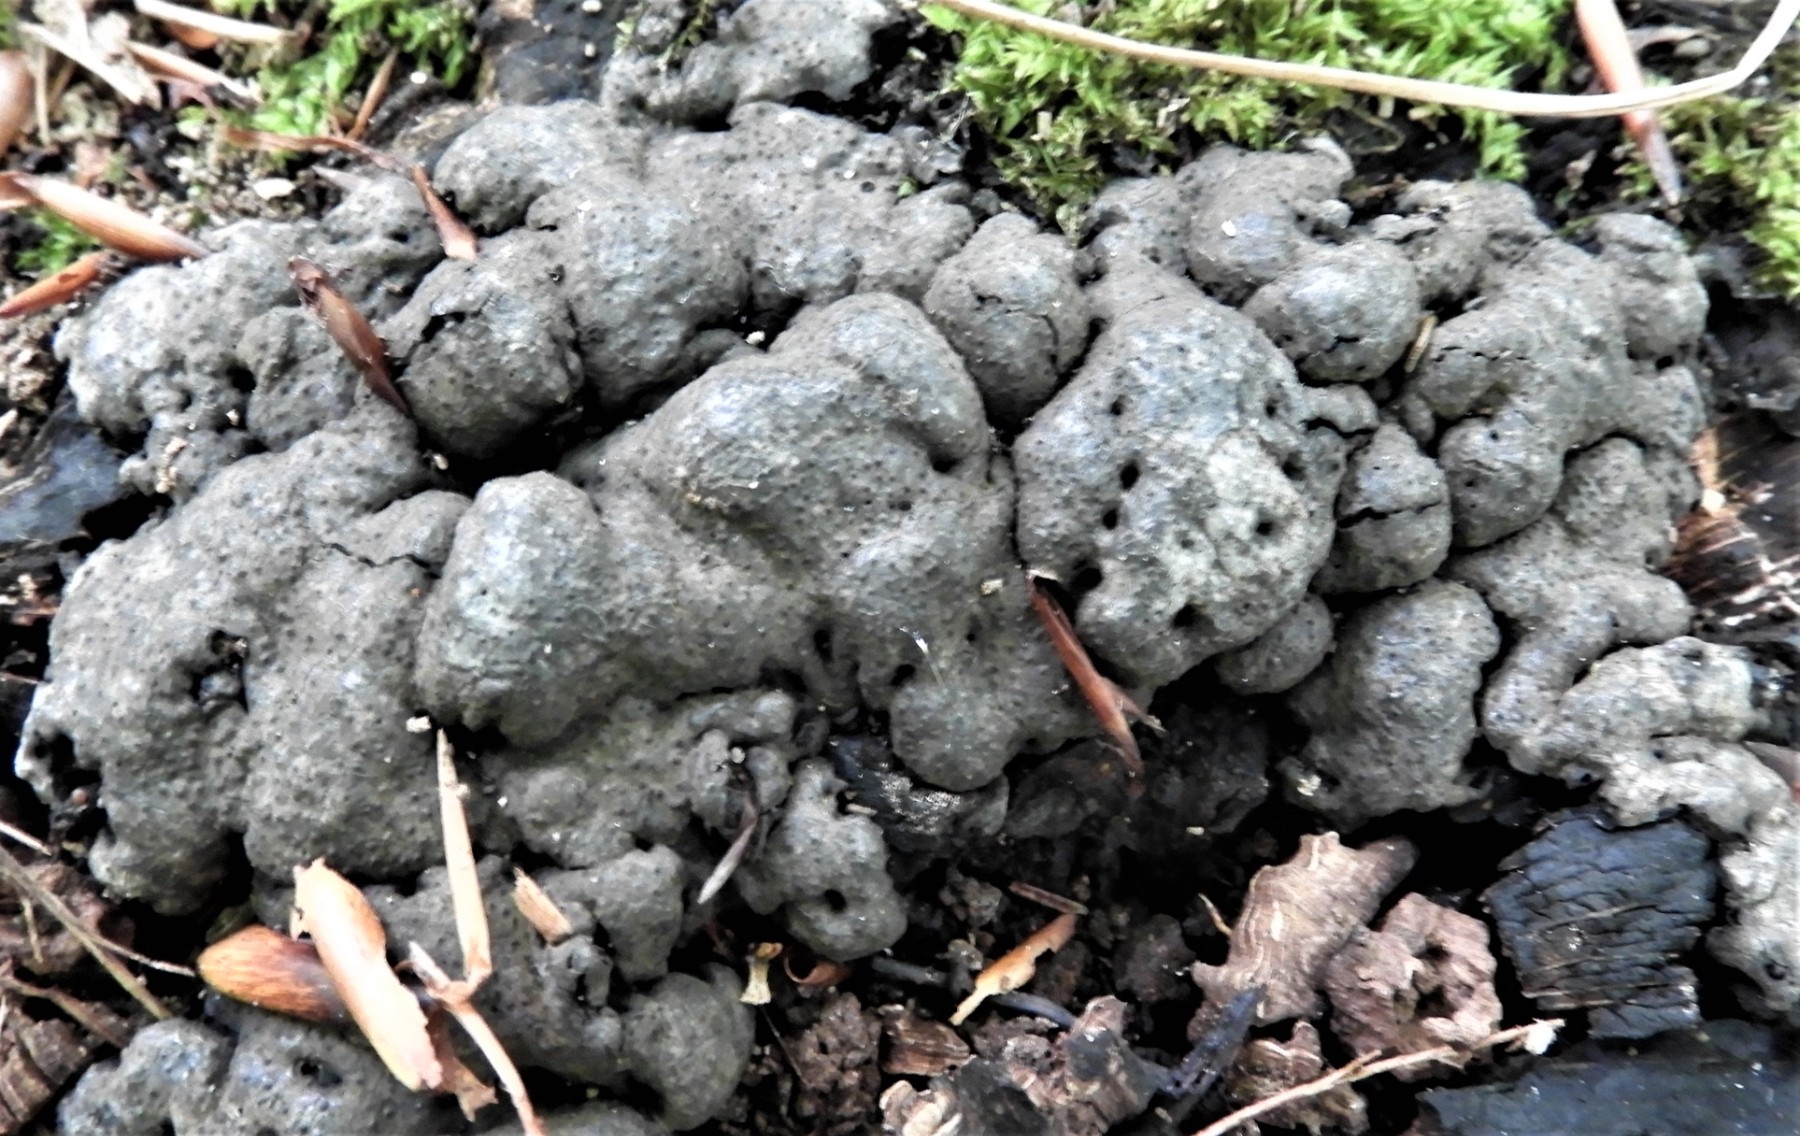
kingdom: Fungi
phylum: Ascomycota
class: Sordariomycetes
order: Xylariales
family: Xylariaceae
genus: Kretzschmaria
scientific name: Kretzschmaria deusta
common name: stor kulsvamp
